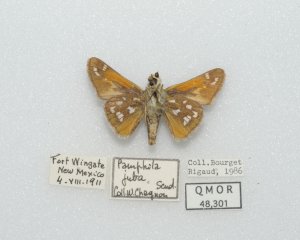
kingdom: Animalia
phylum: Arthropoda
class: Insecta
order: Lepidoptera
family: Hesperiidae
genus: Hesperia
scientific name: Hesperia pahaska
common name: Pahaska Skipper
